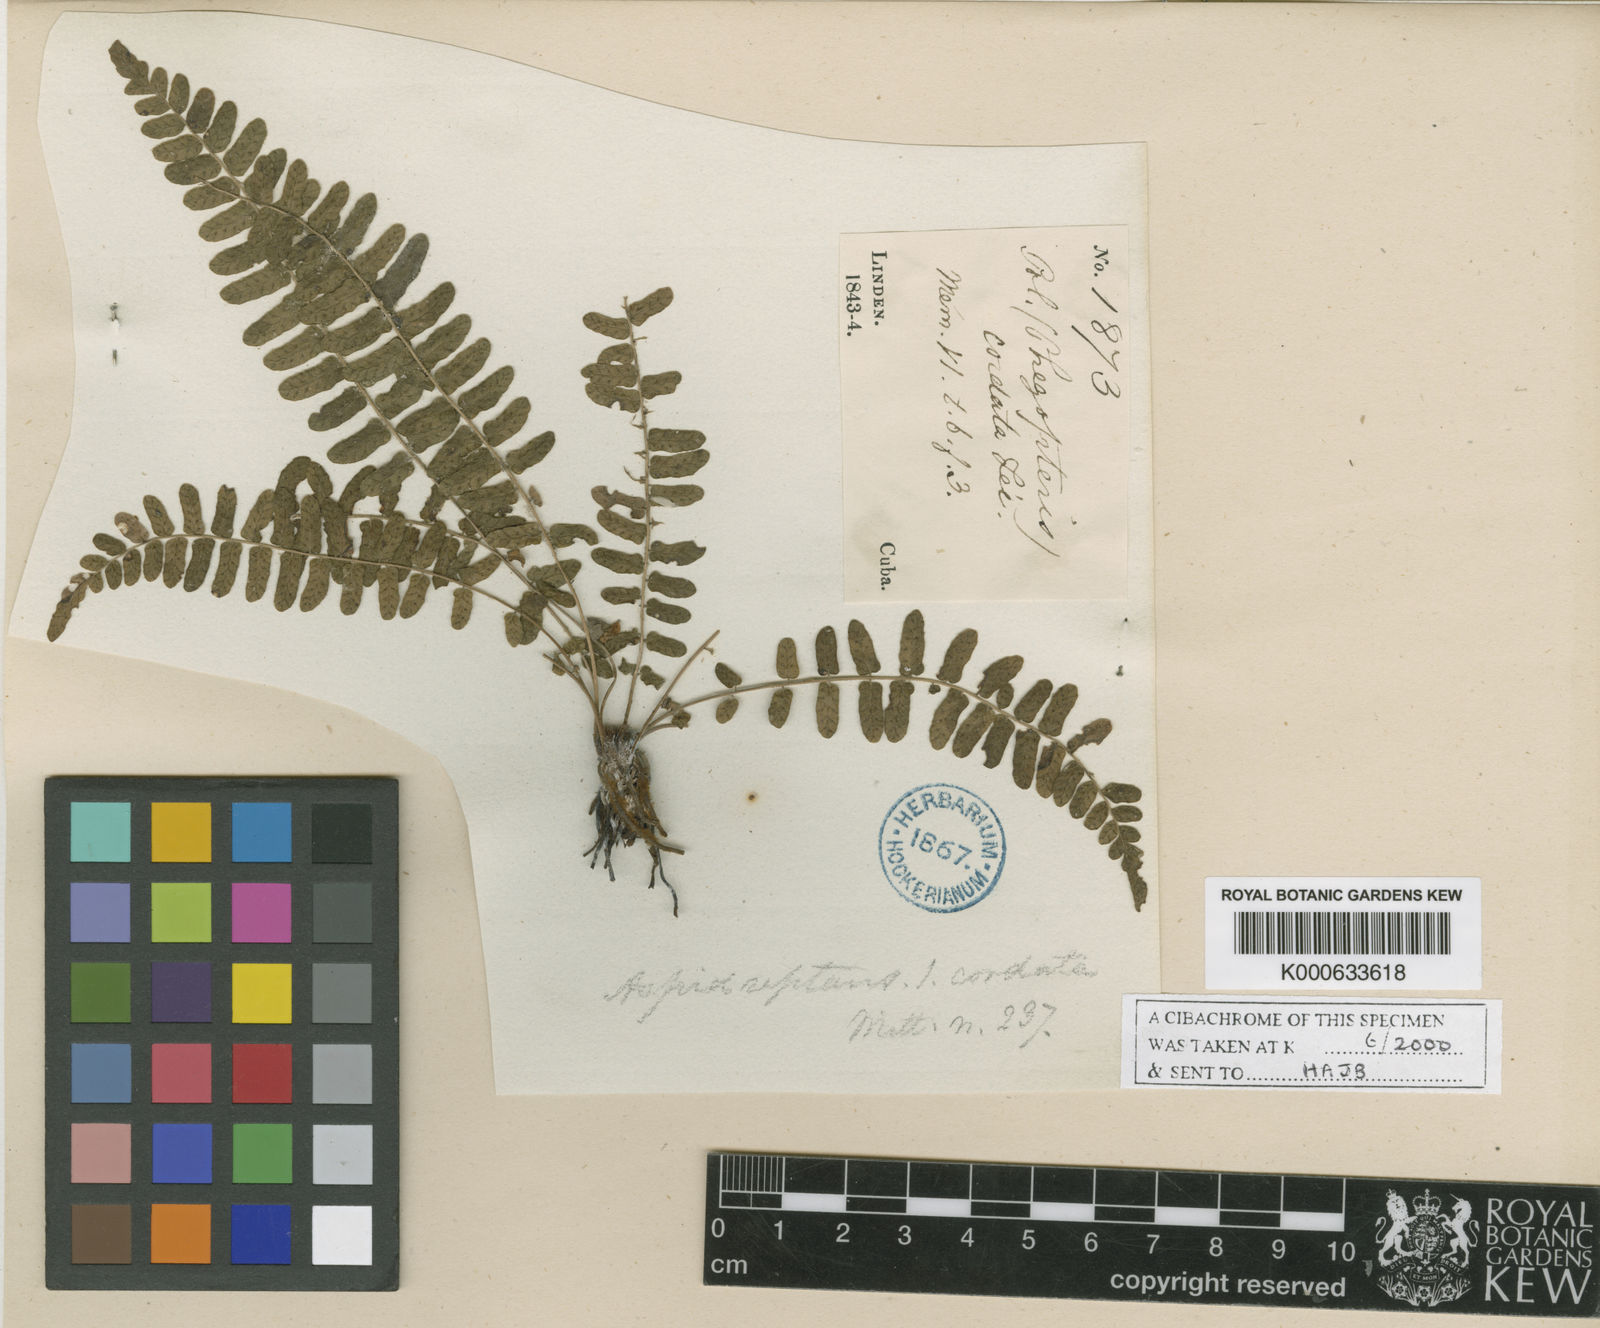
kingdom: Plantae
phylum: Tracheophyta
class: Polypodiopsida
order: Polypodiales
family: Thelypteridaceae
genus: Goniopteris
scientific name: Goniopteris
